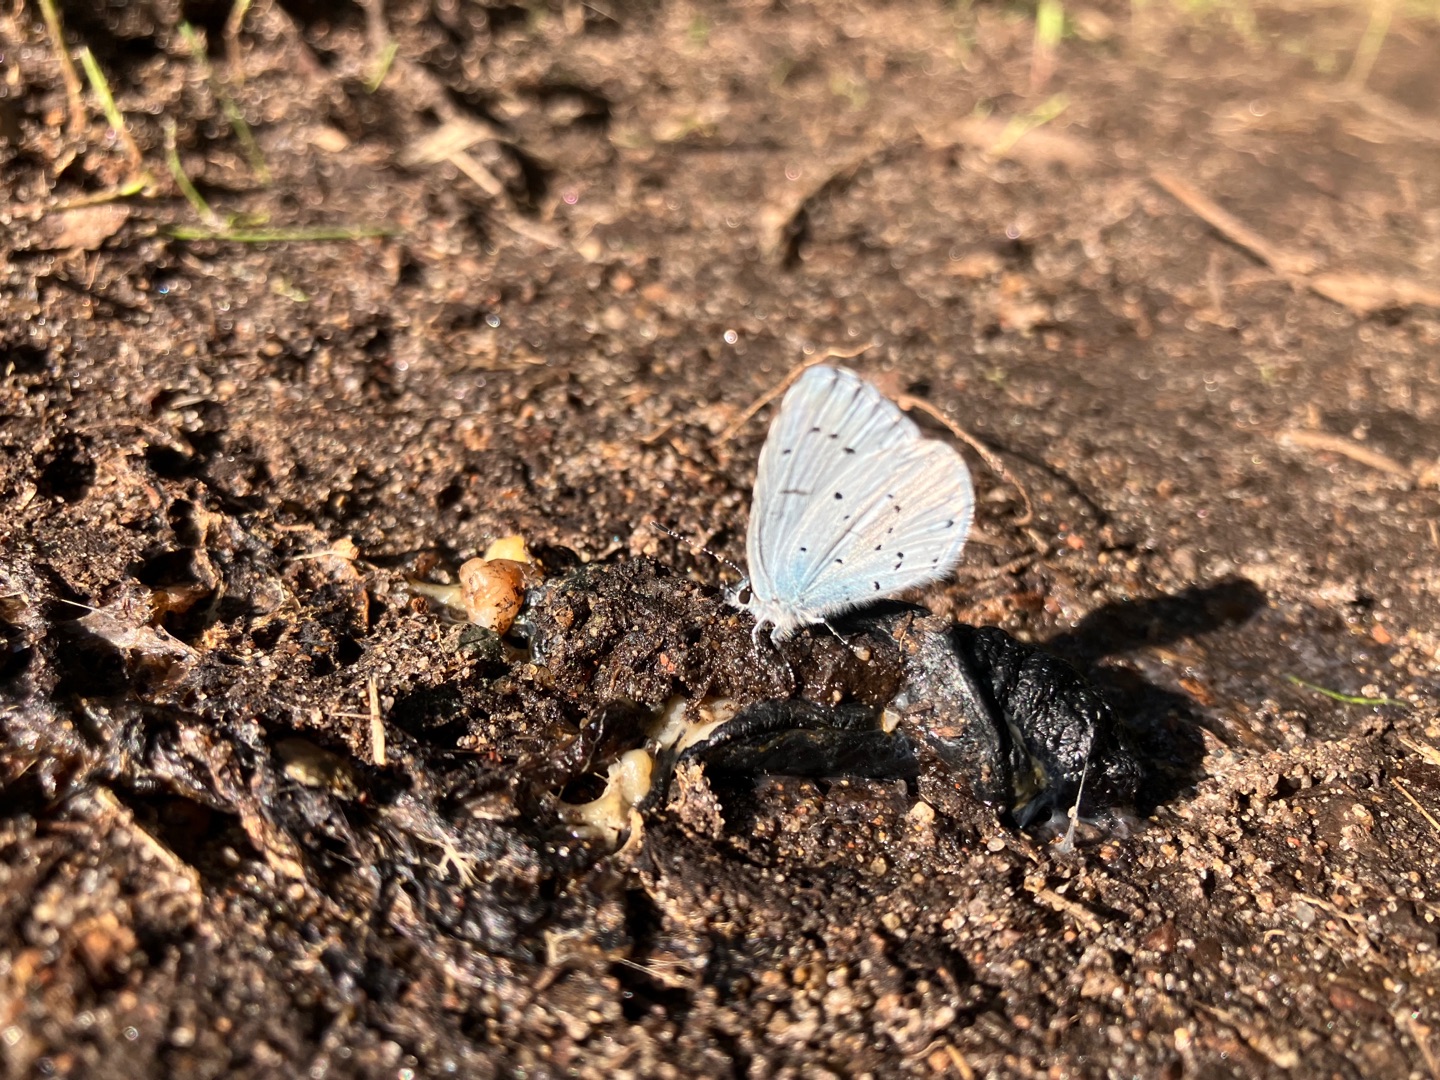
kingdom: Animalia
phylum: Arthropoda
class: Insecta
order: Lepidoptera
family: Lycaenidae
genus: Celastrina
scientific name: Celastrina argiolus
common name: Skovblåfugl
